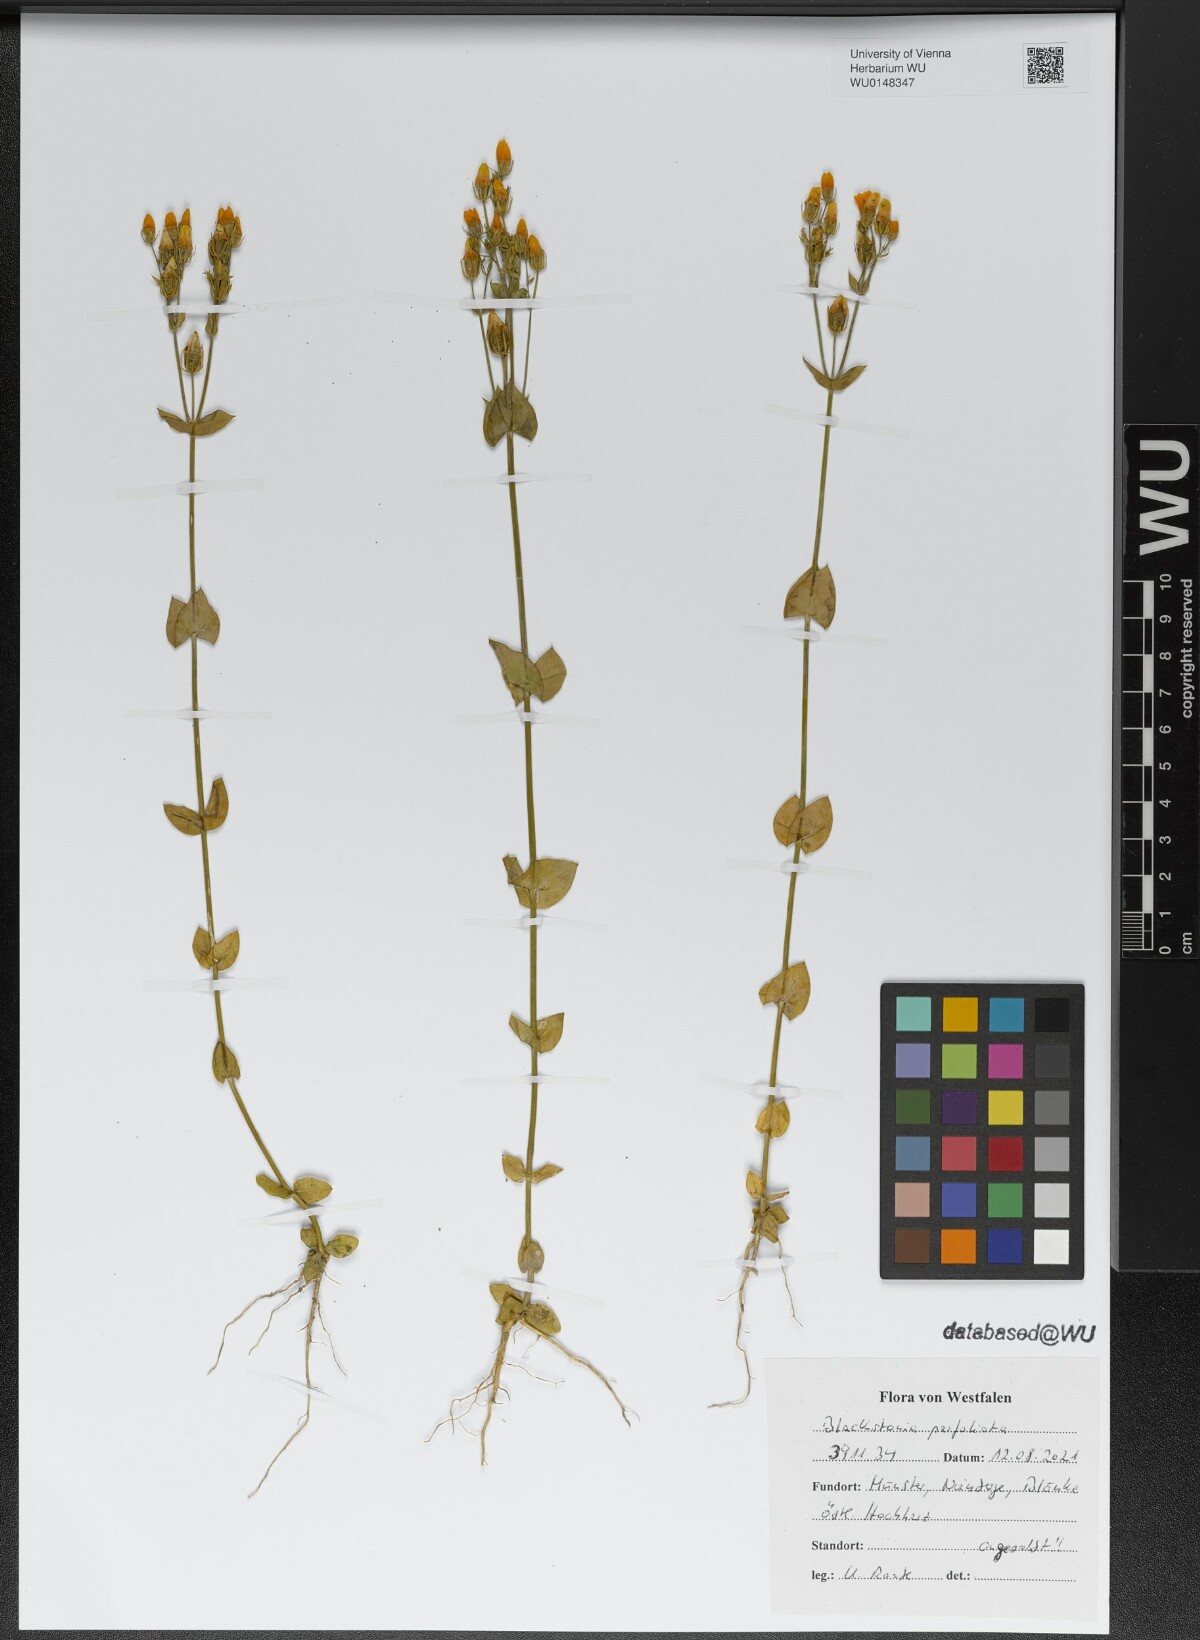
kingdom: Plantae
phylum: Tracheophyta
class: Magnoliopsida
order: Gentianales
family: Gentianaceae
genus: Blackstonia
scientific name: Blackstonia perfoliata
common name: Yellow-wort
